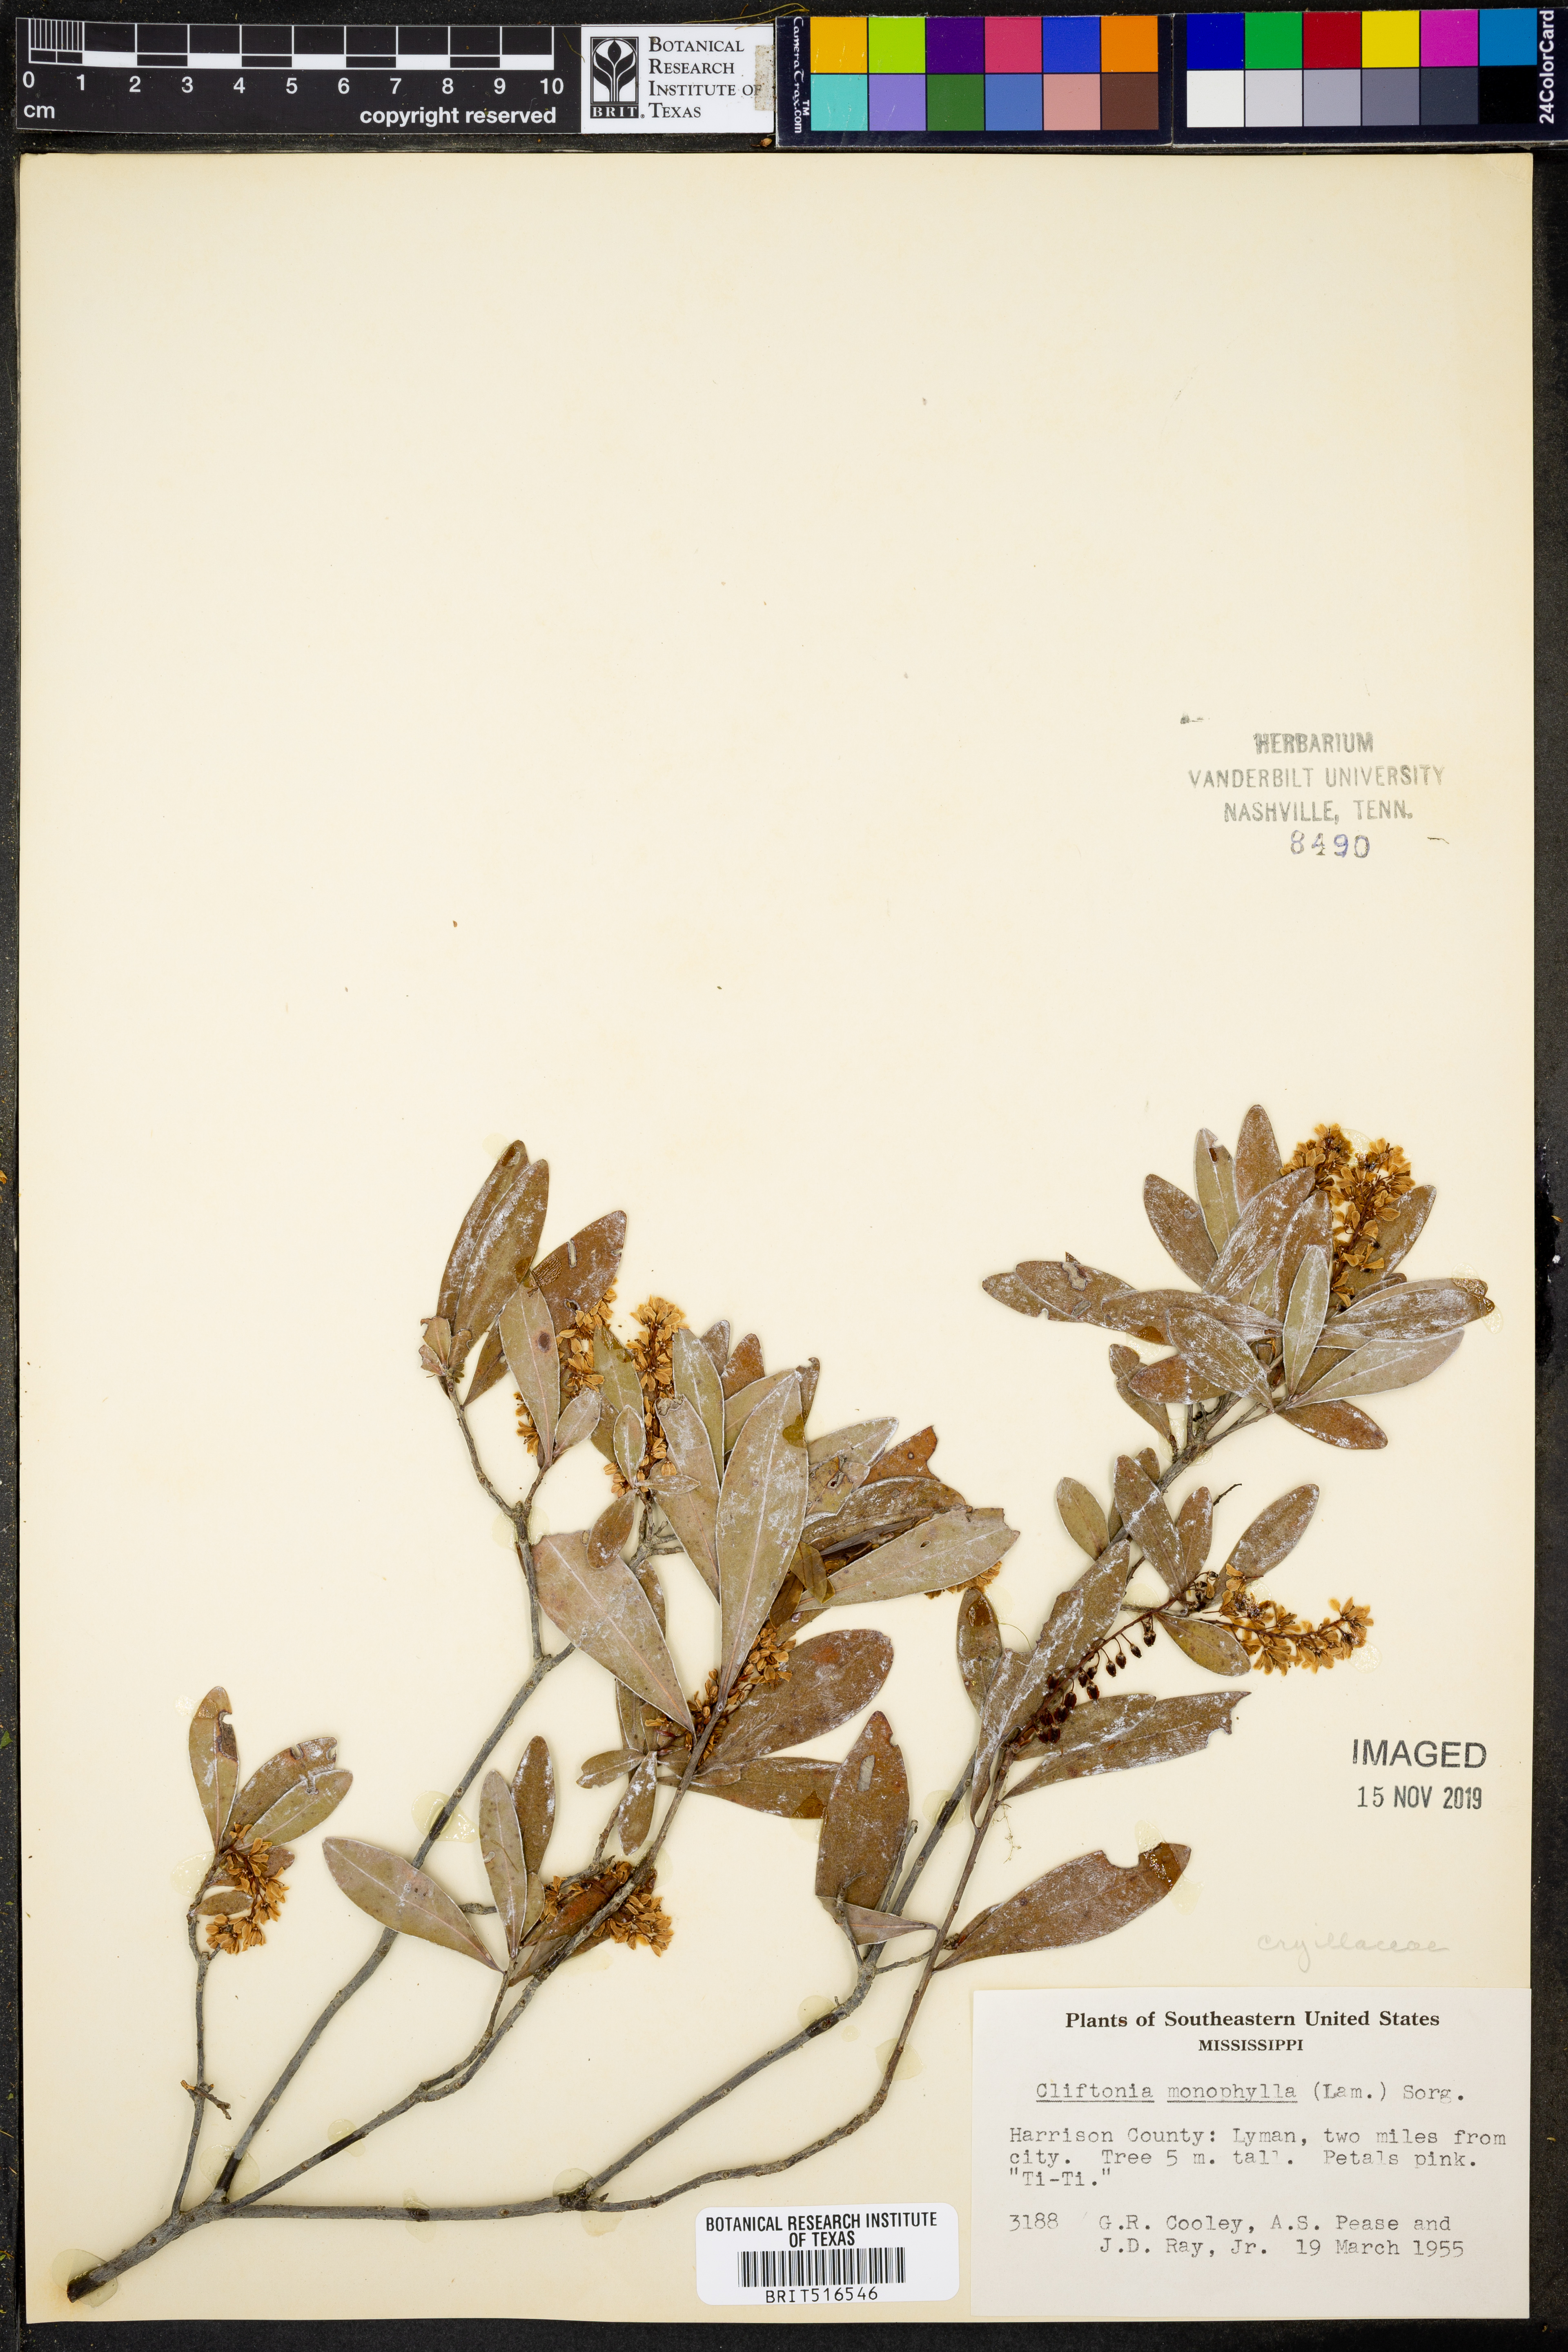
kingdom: Plantae
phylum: Tracheophyta
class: Magnoliopsida
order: Ericales
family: Cyrillaceae
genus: Cliftonia
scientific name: Cliftonia monophylla
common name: Titi
